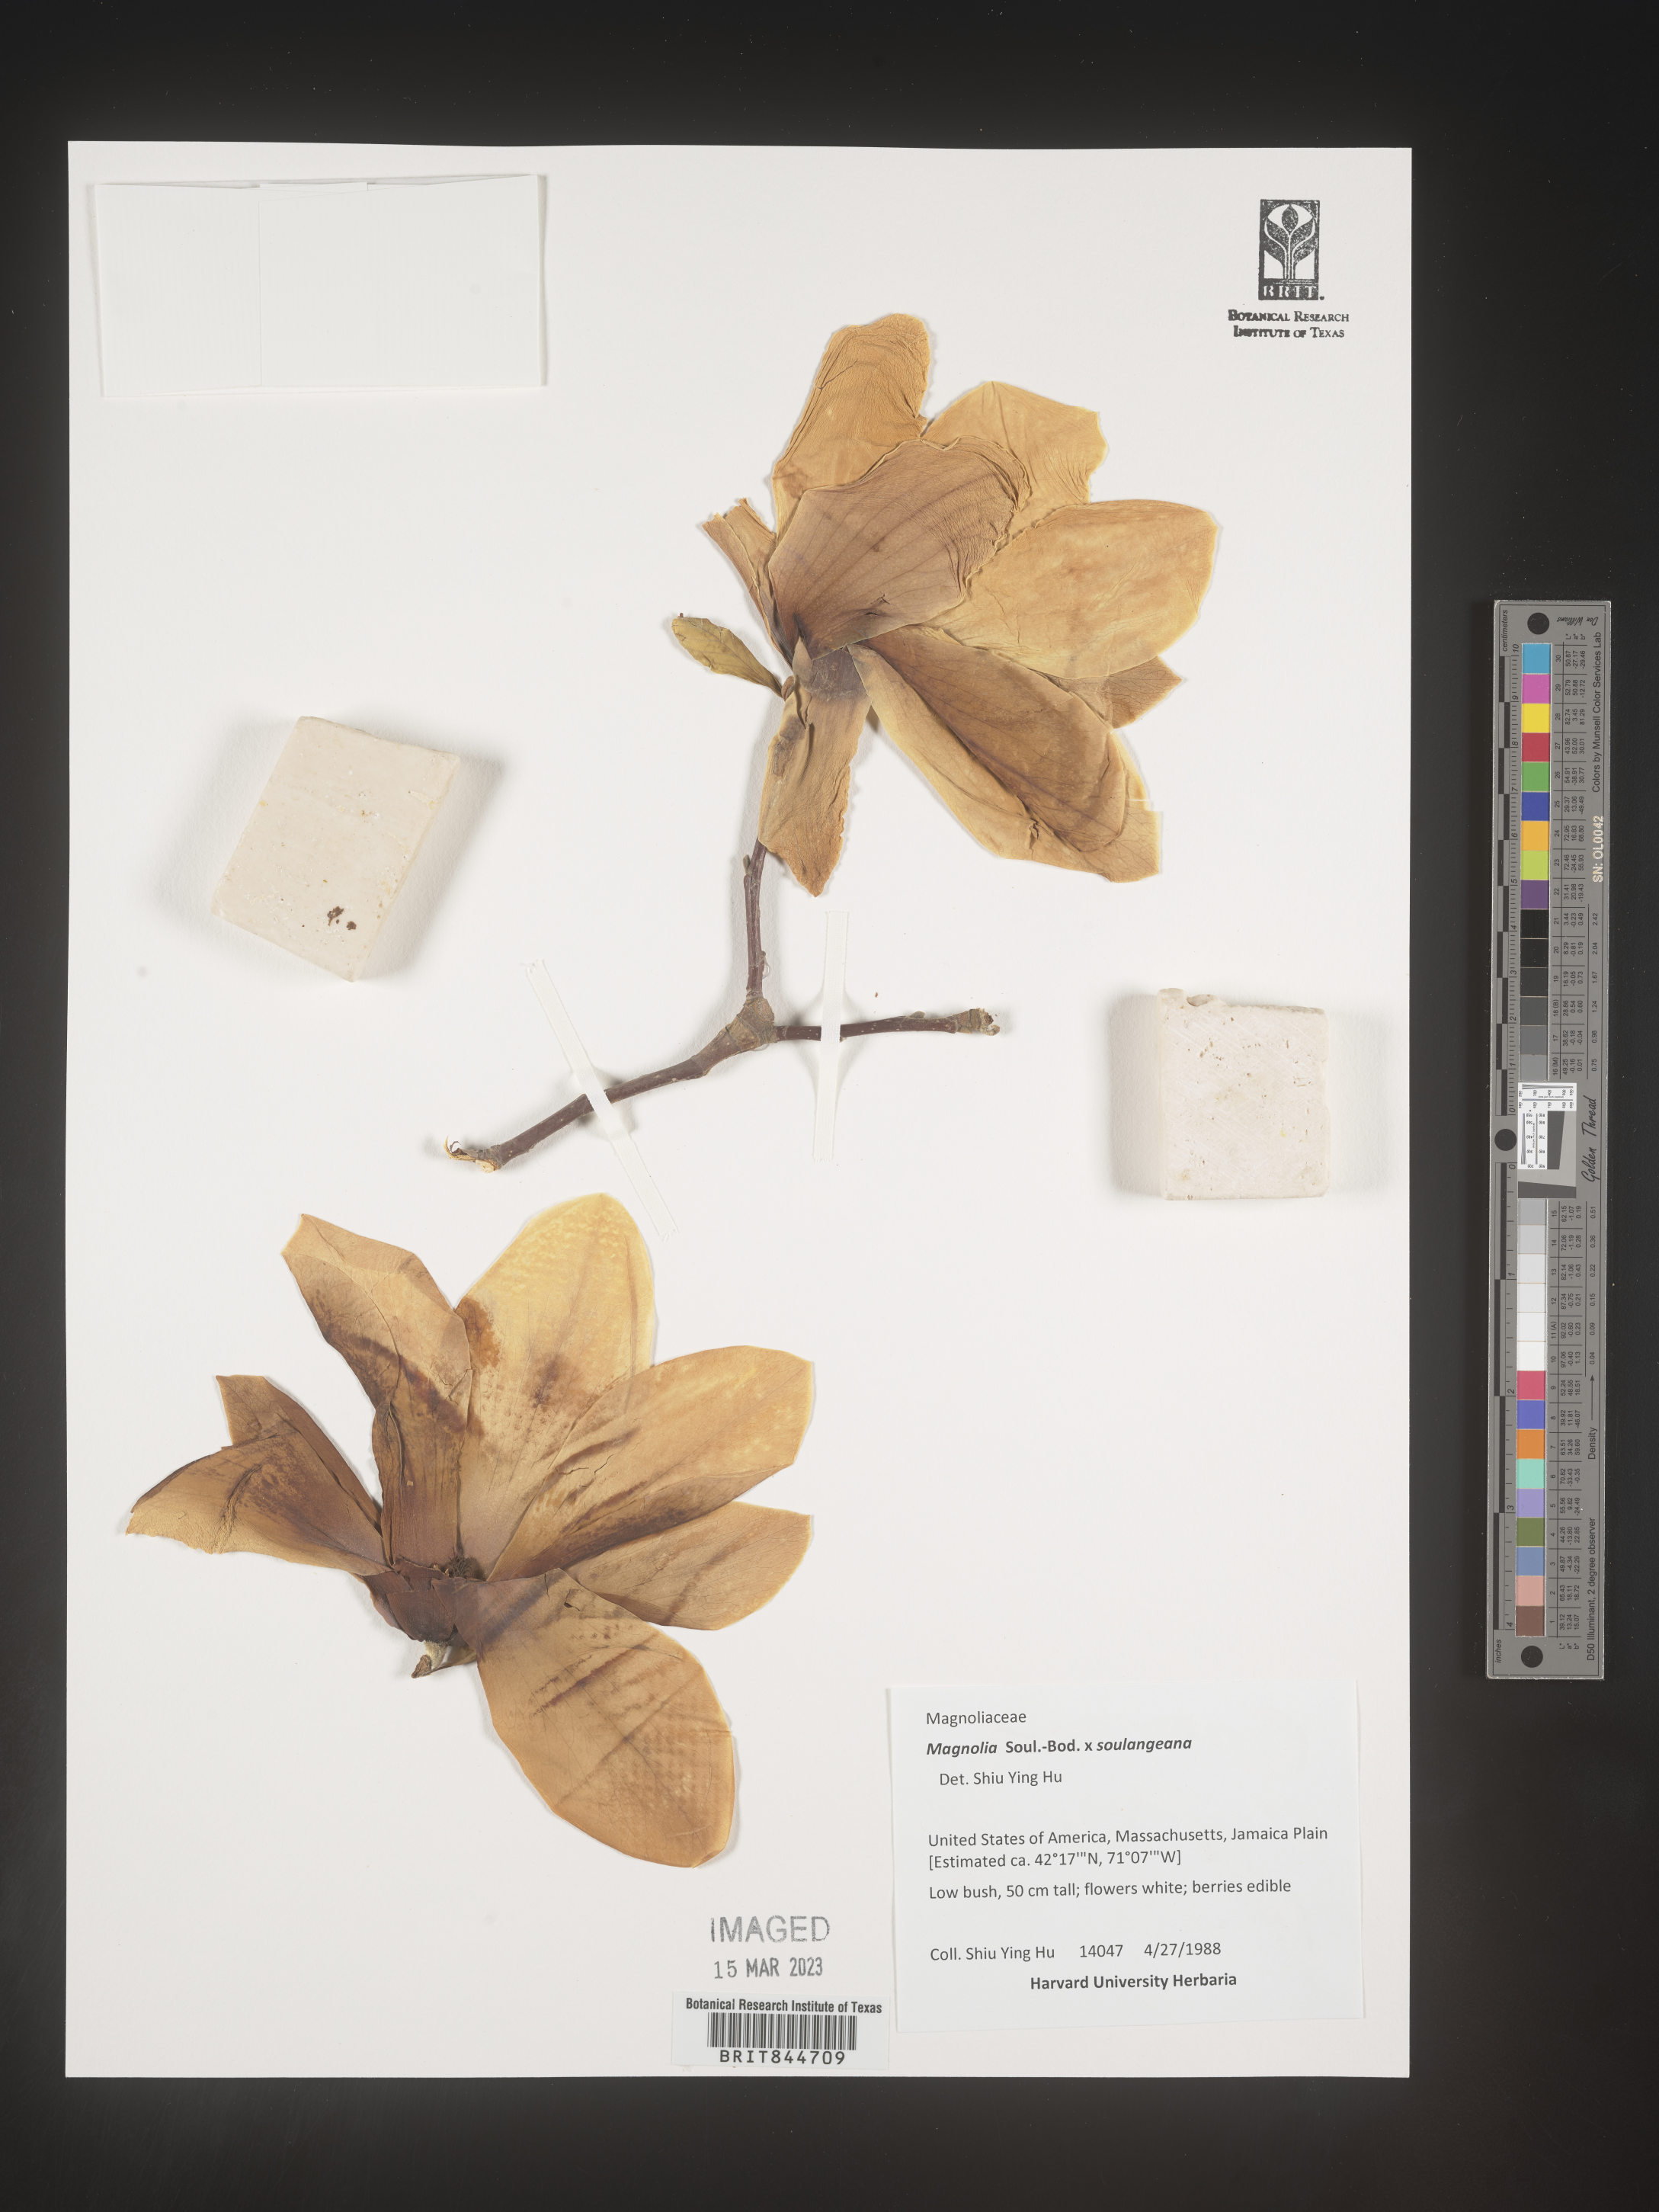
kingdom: Plantae
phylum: Tracheophyta
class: Magnoliopsida
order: Magnoliales
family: Magnoliaceae
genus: Magnolia
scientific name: Magnolia
